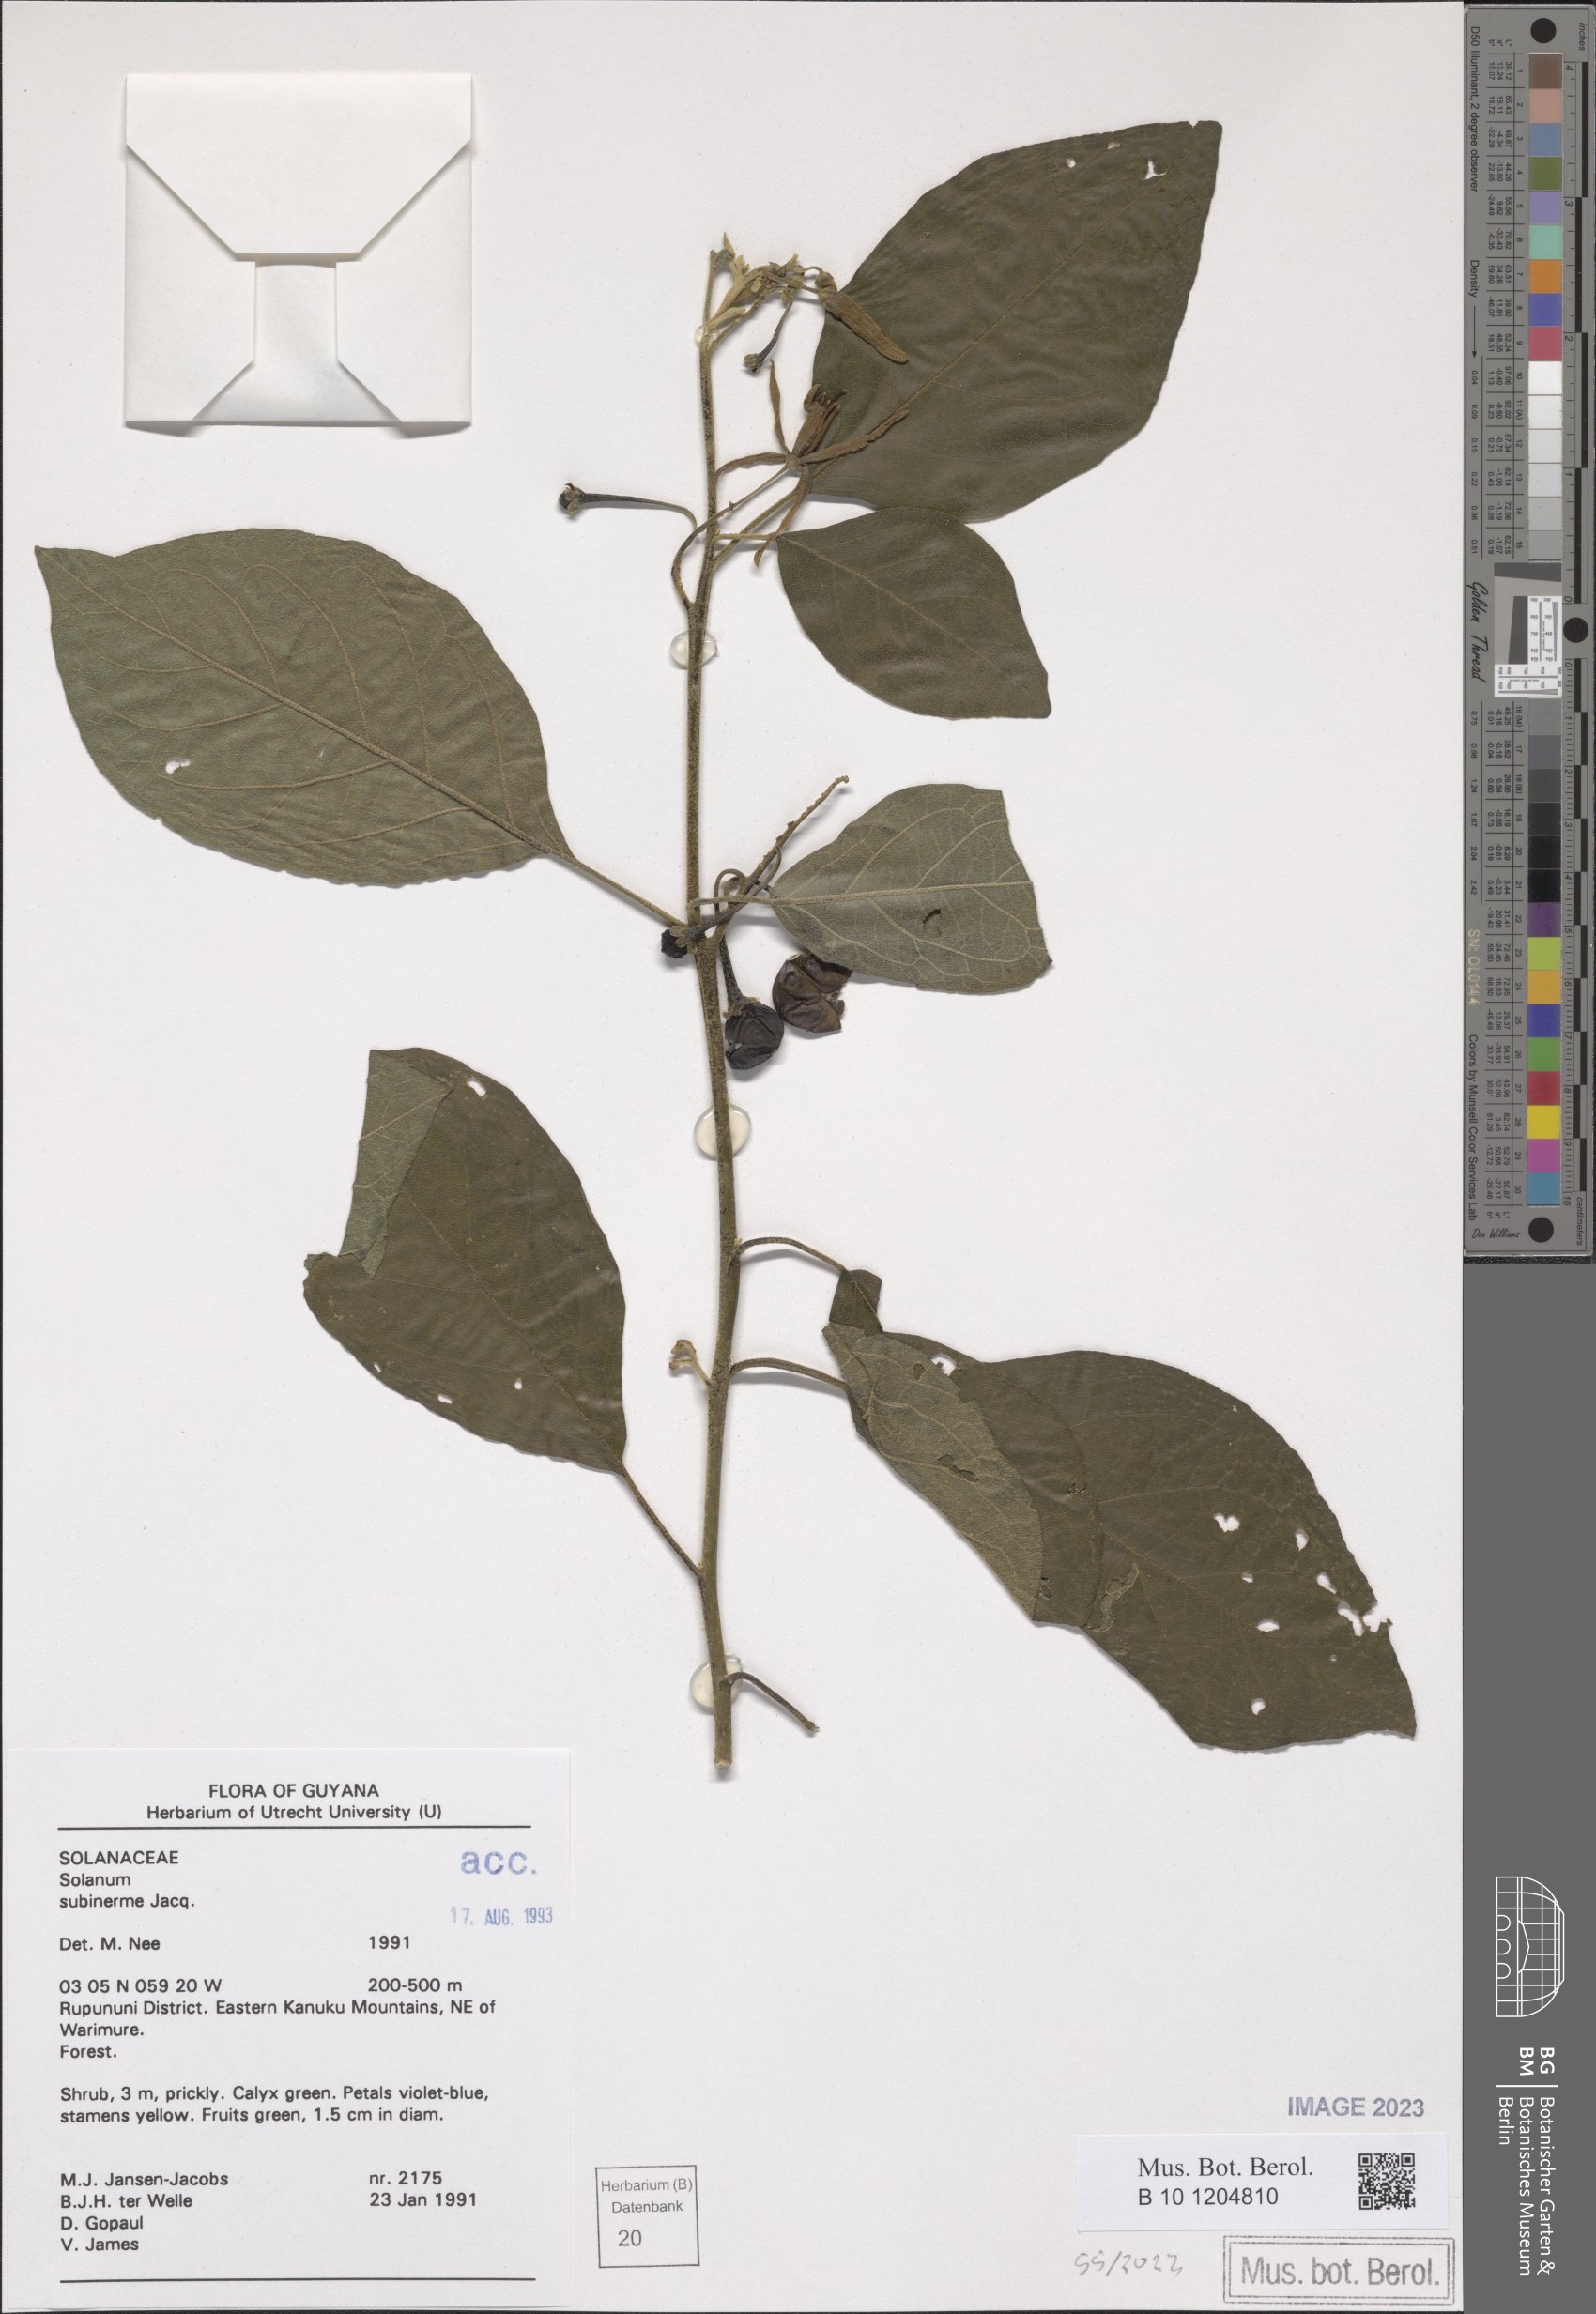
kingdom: Plantae
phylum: Tracheophyta
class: Magnoliopsida
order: Solanales
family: Solanaceae
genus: Solanum
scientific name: Solanum subinerme
